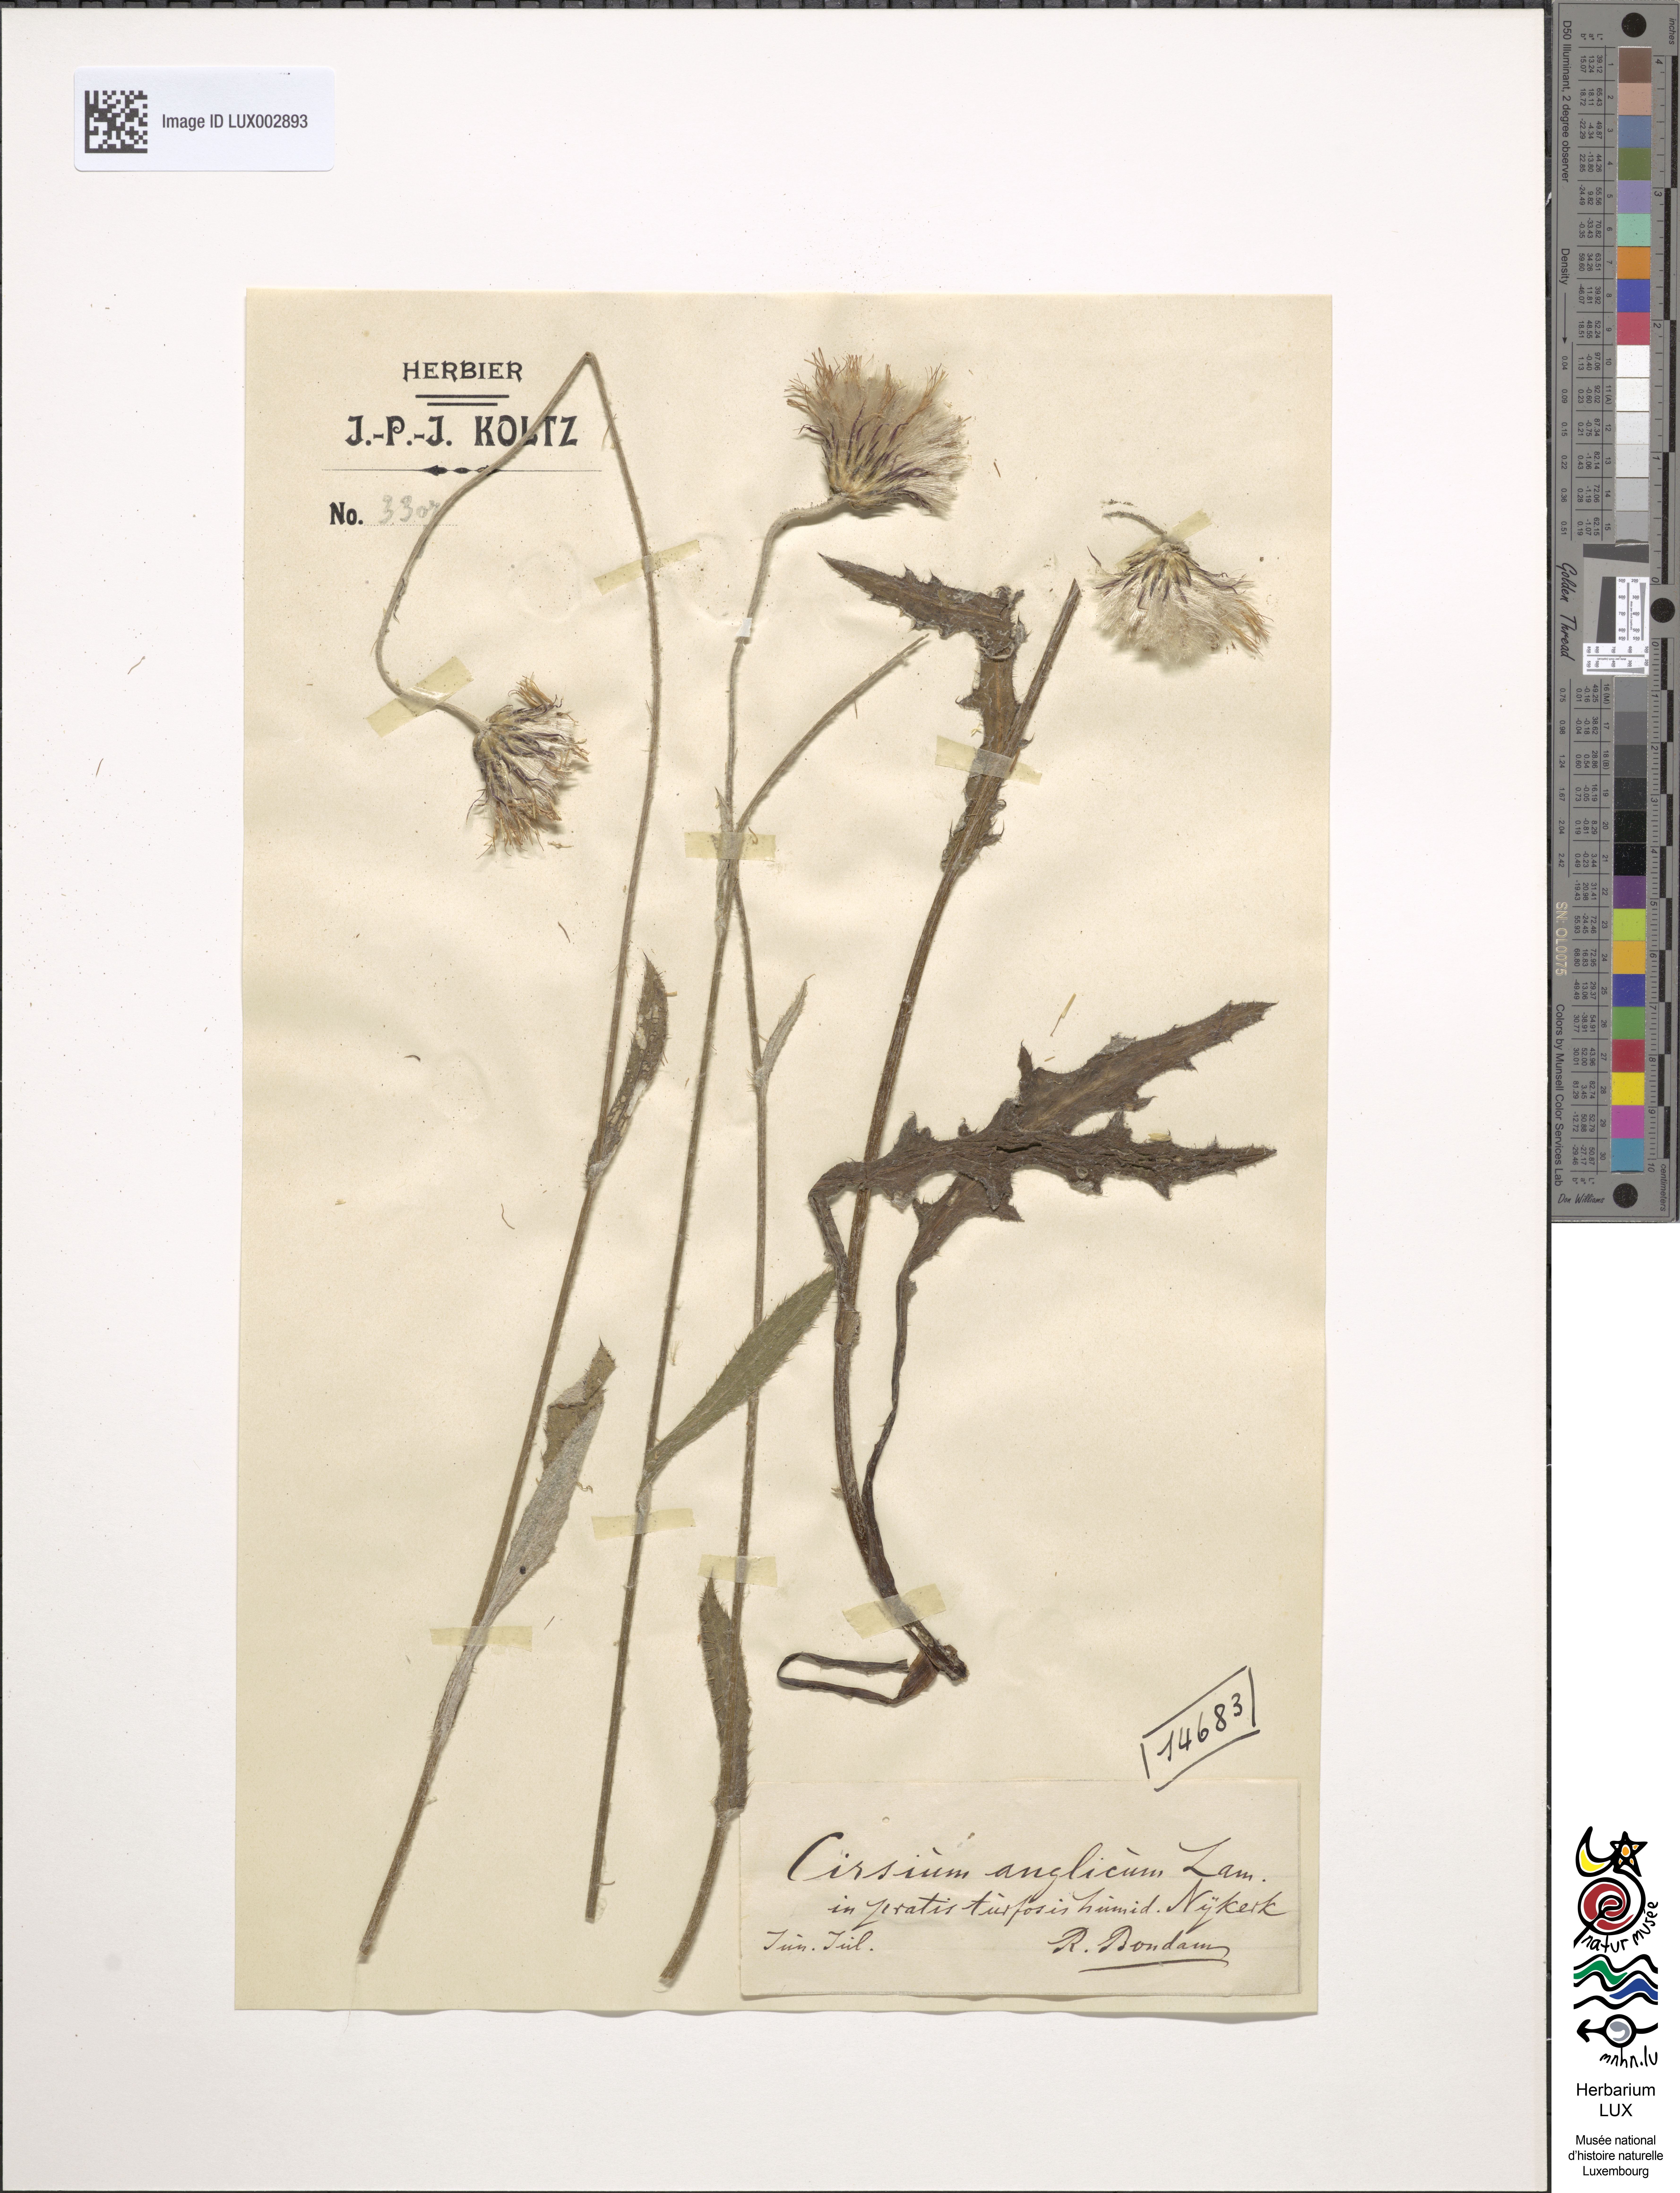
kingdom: Plantae
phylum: Tracheophyta
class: Magnoliopsida
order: Asterales
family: Asteraceae
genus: Cirsium
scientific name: Cirsium dissectum
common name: Meadow thistle
